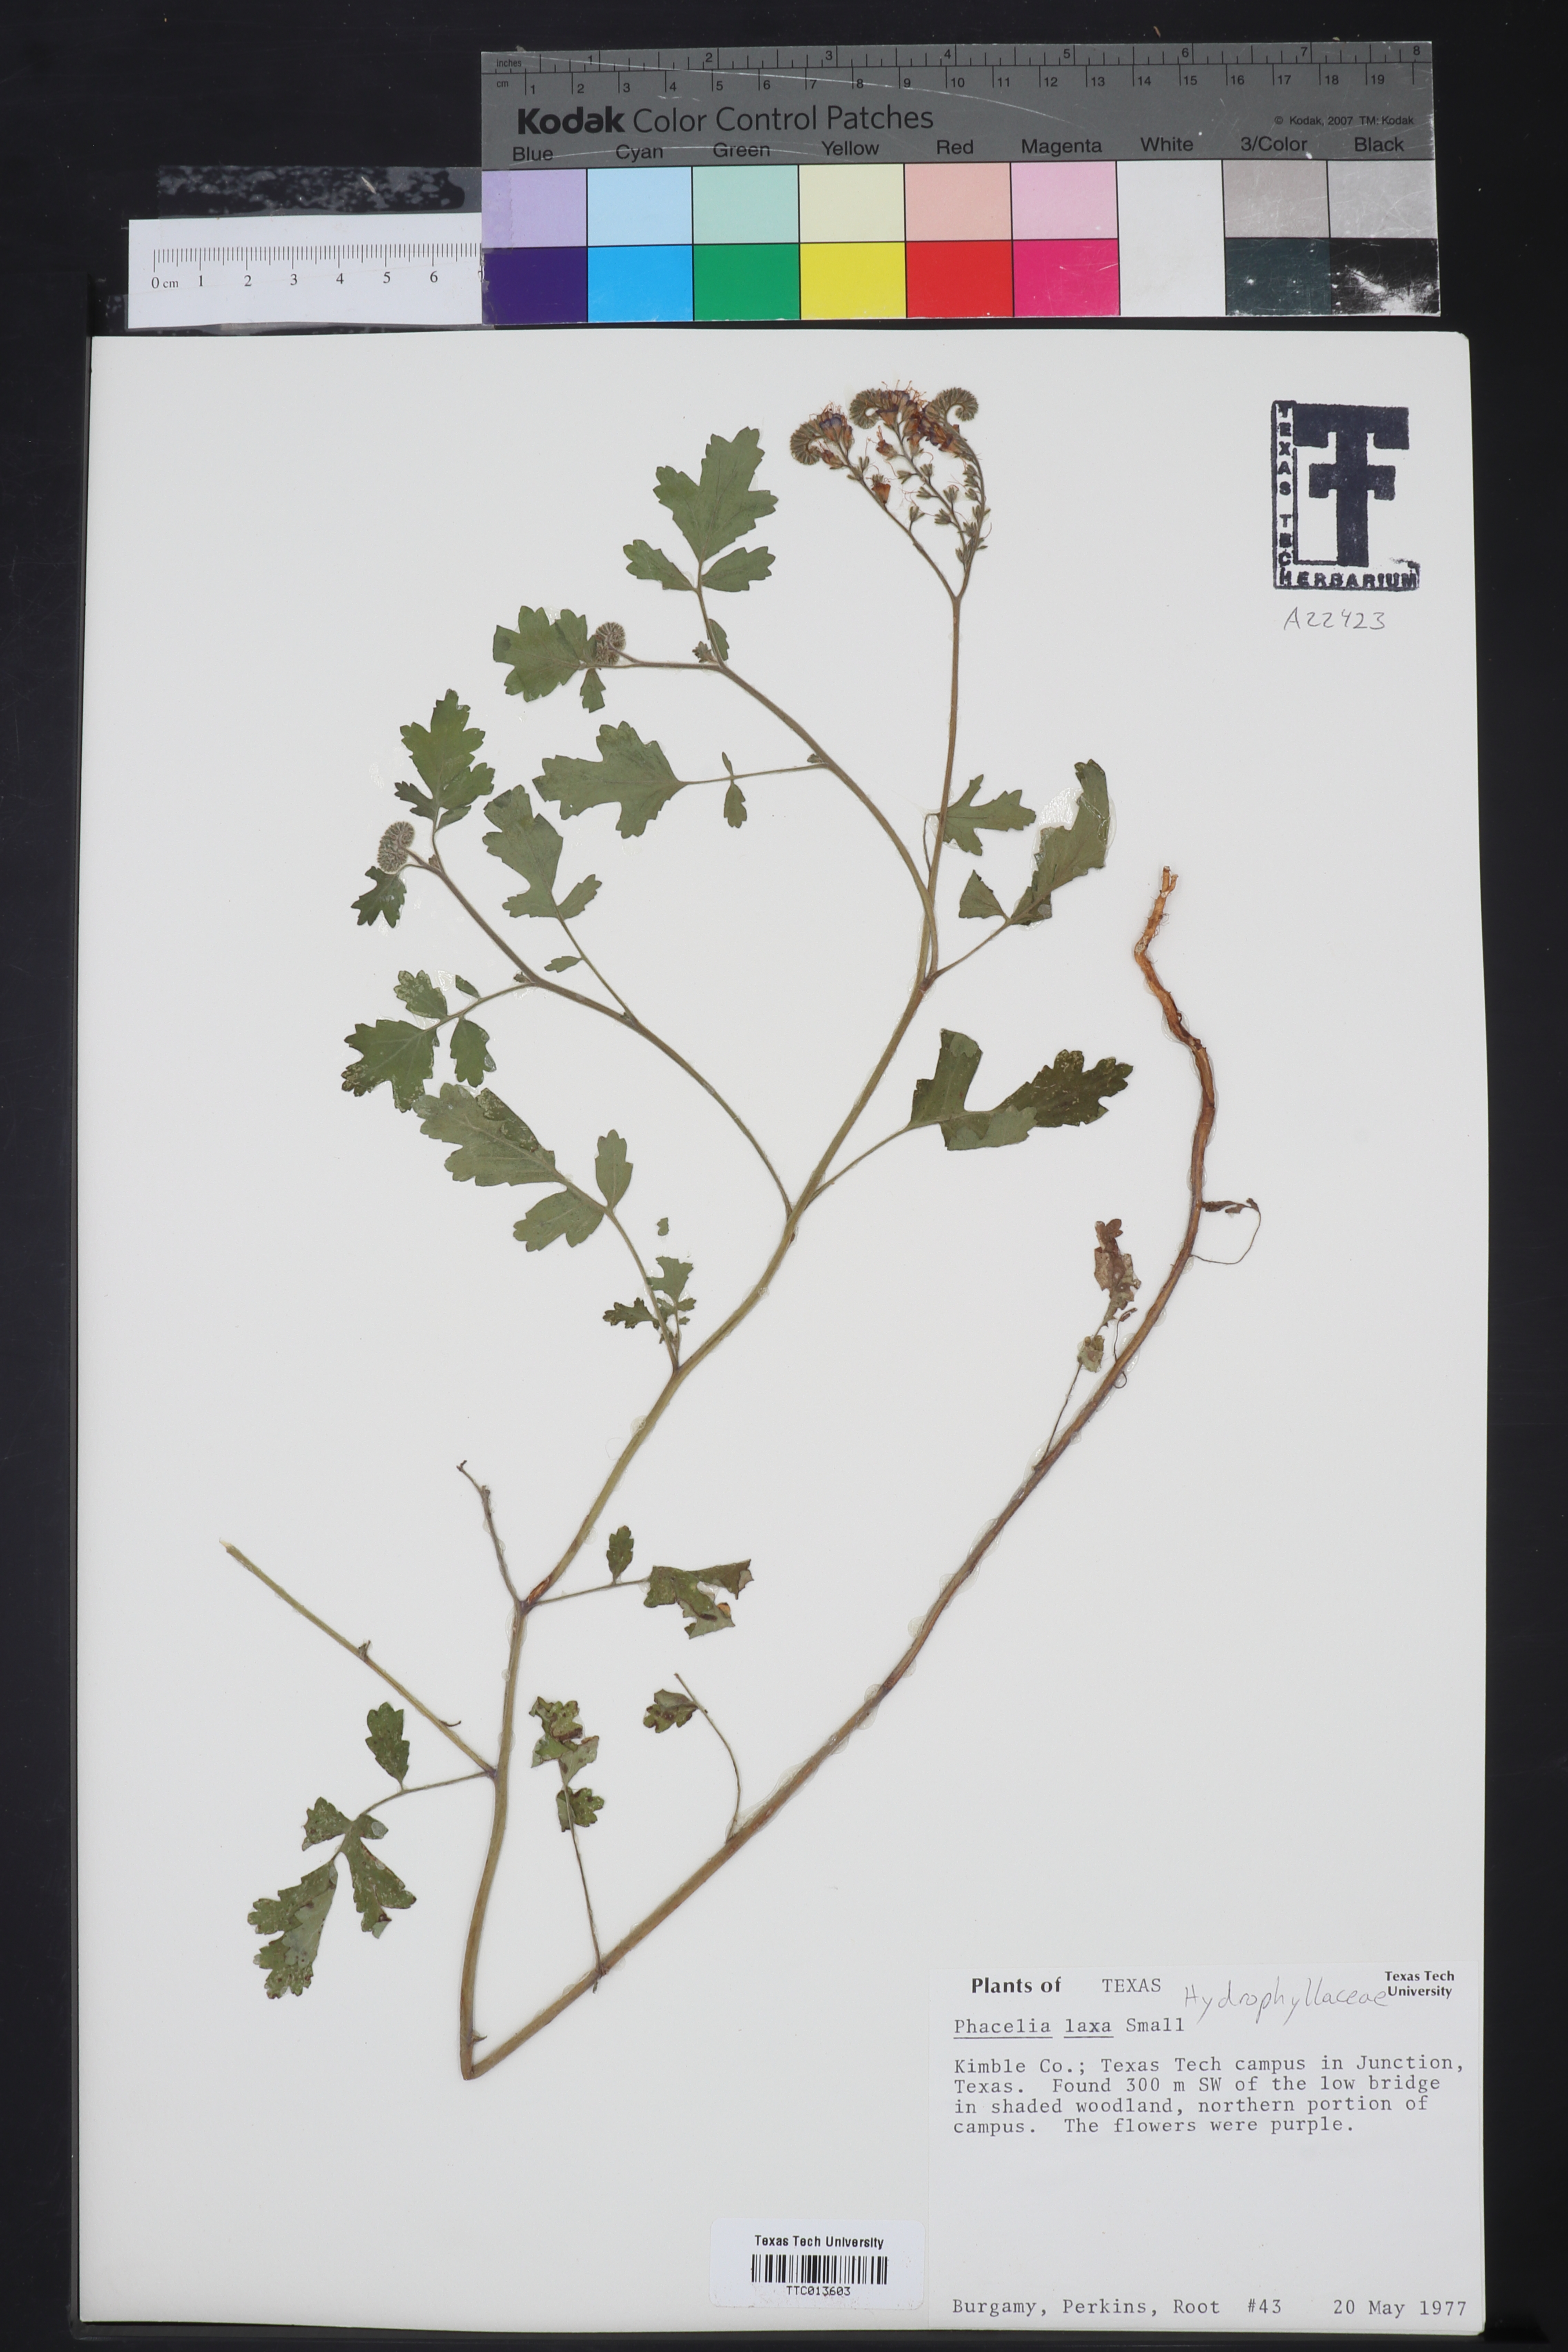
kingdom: Plantae
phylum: Tracheophyta
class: Magnoliopsida
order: Boraginales
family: Hydrophyllaceae
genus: Phacelia
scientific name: Phacelia laxa
